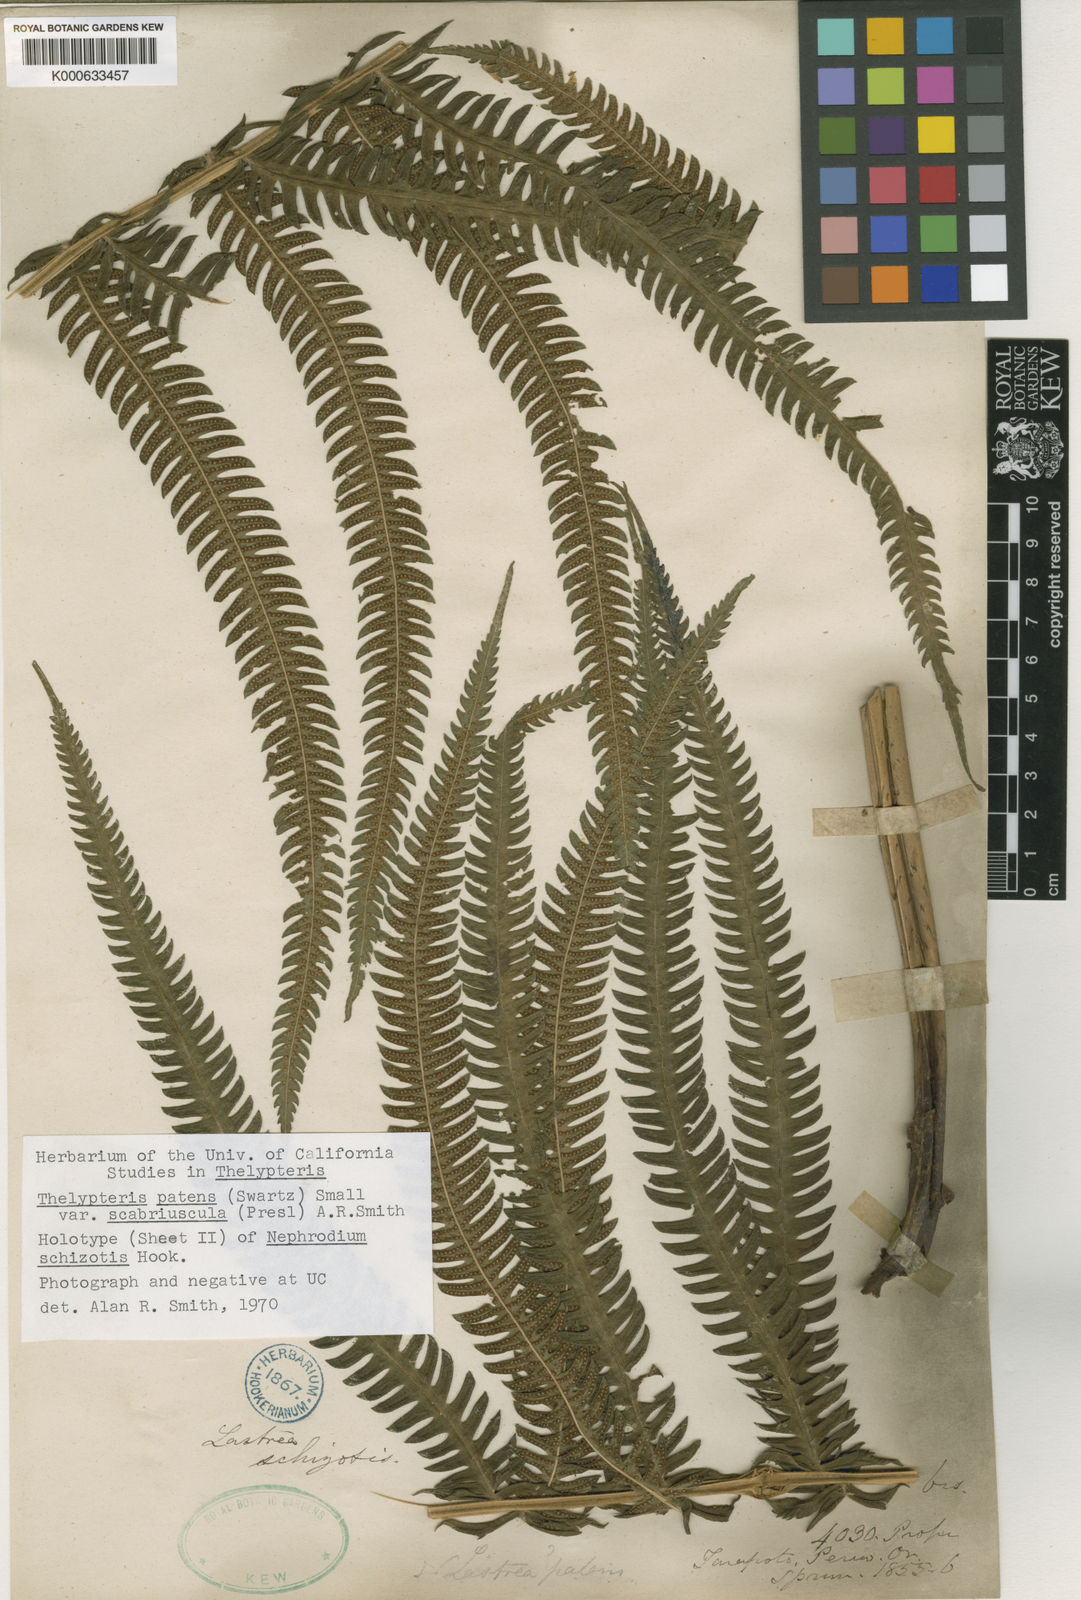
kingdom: Plantae
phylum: Tracheophyta
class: Polypodiopsida
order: Polypodiales
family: Thelypteridaceae
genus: Pelazoneuron
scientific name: Pelazoneuron patens
